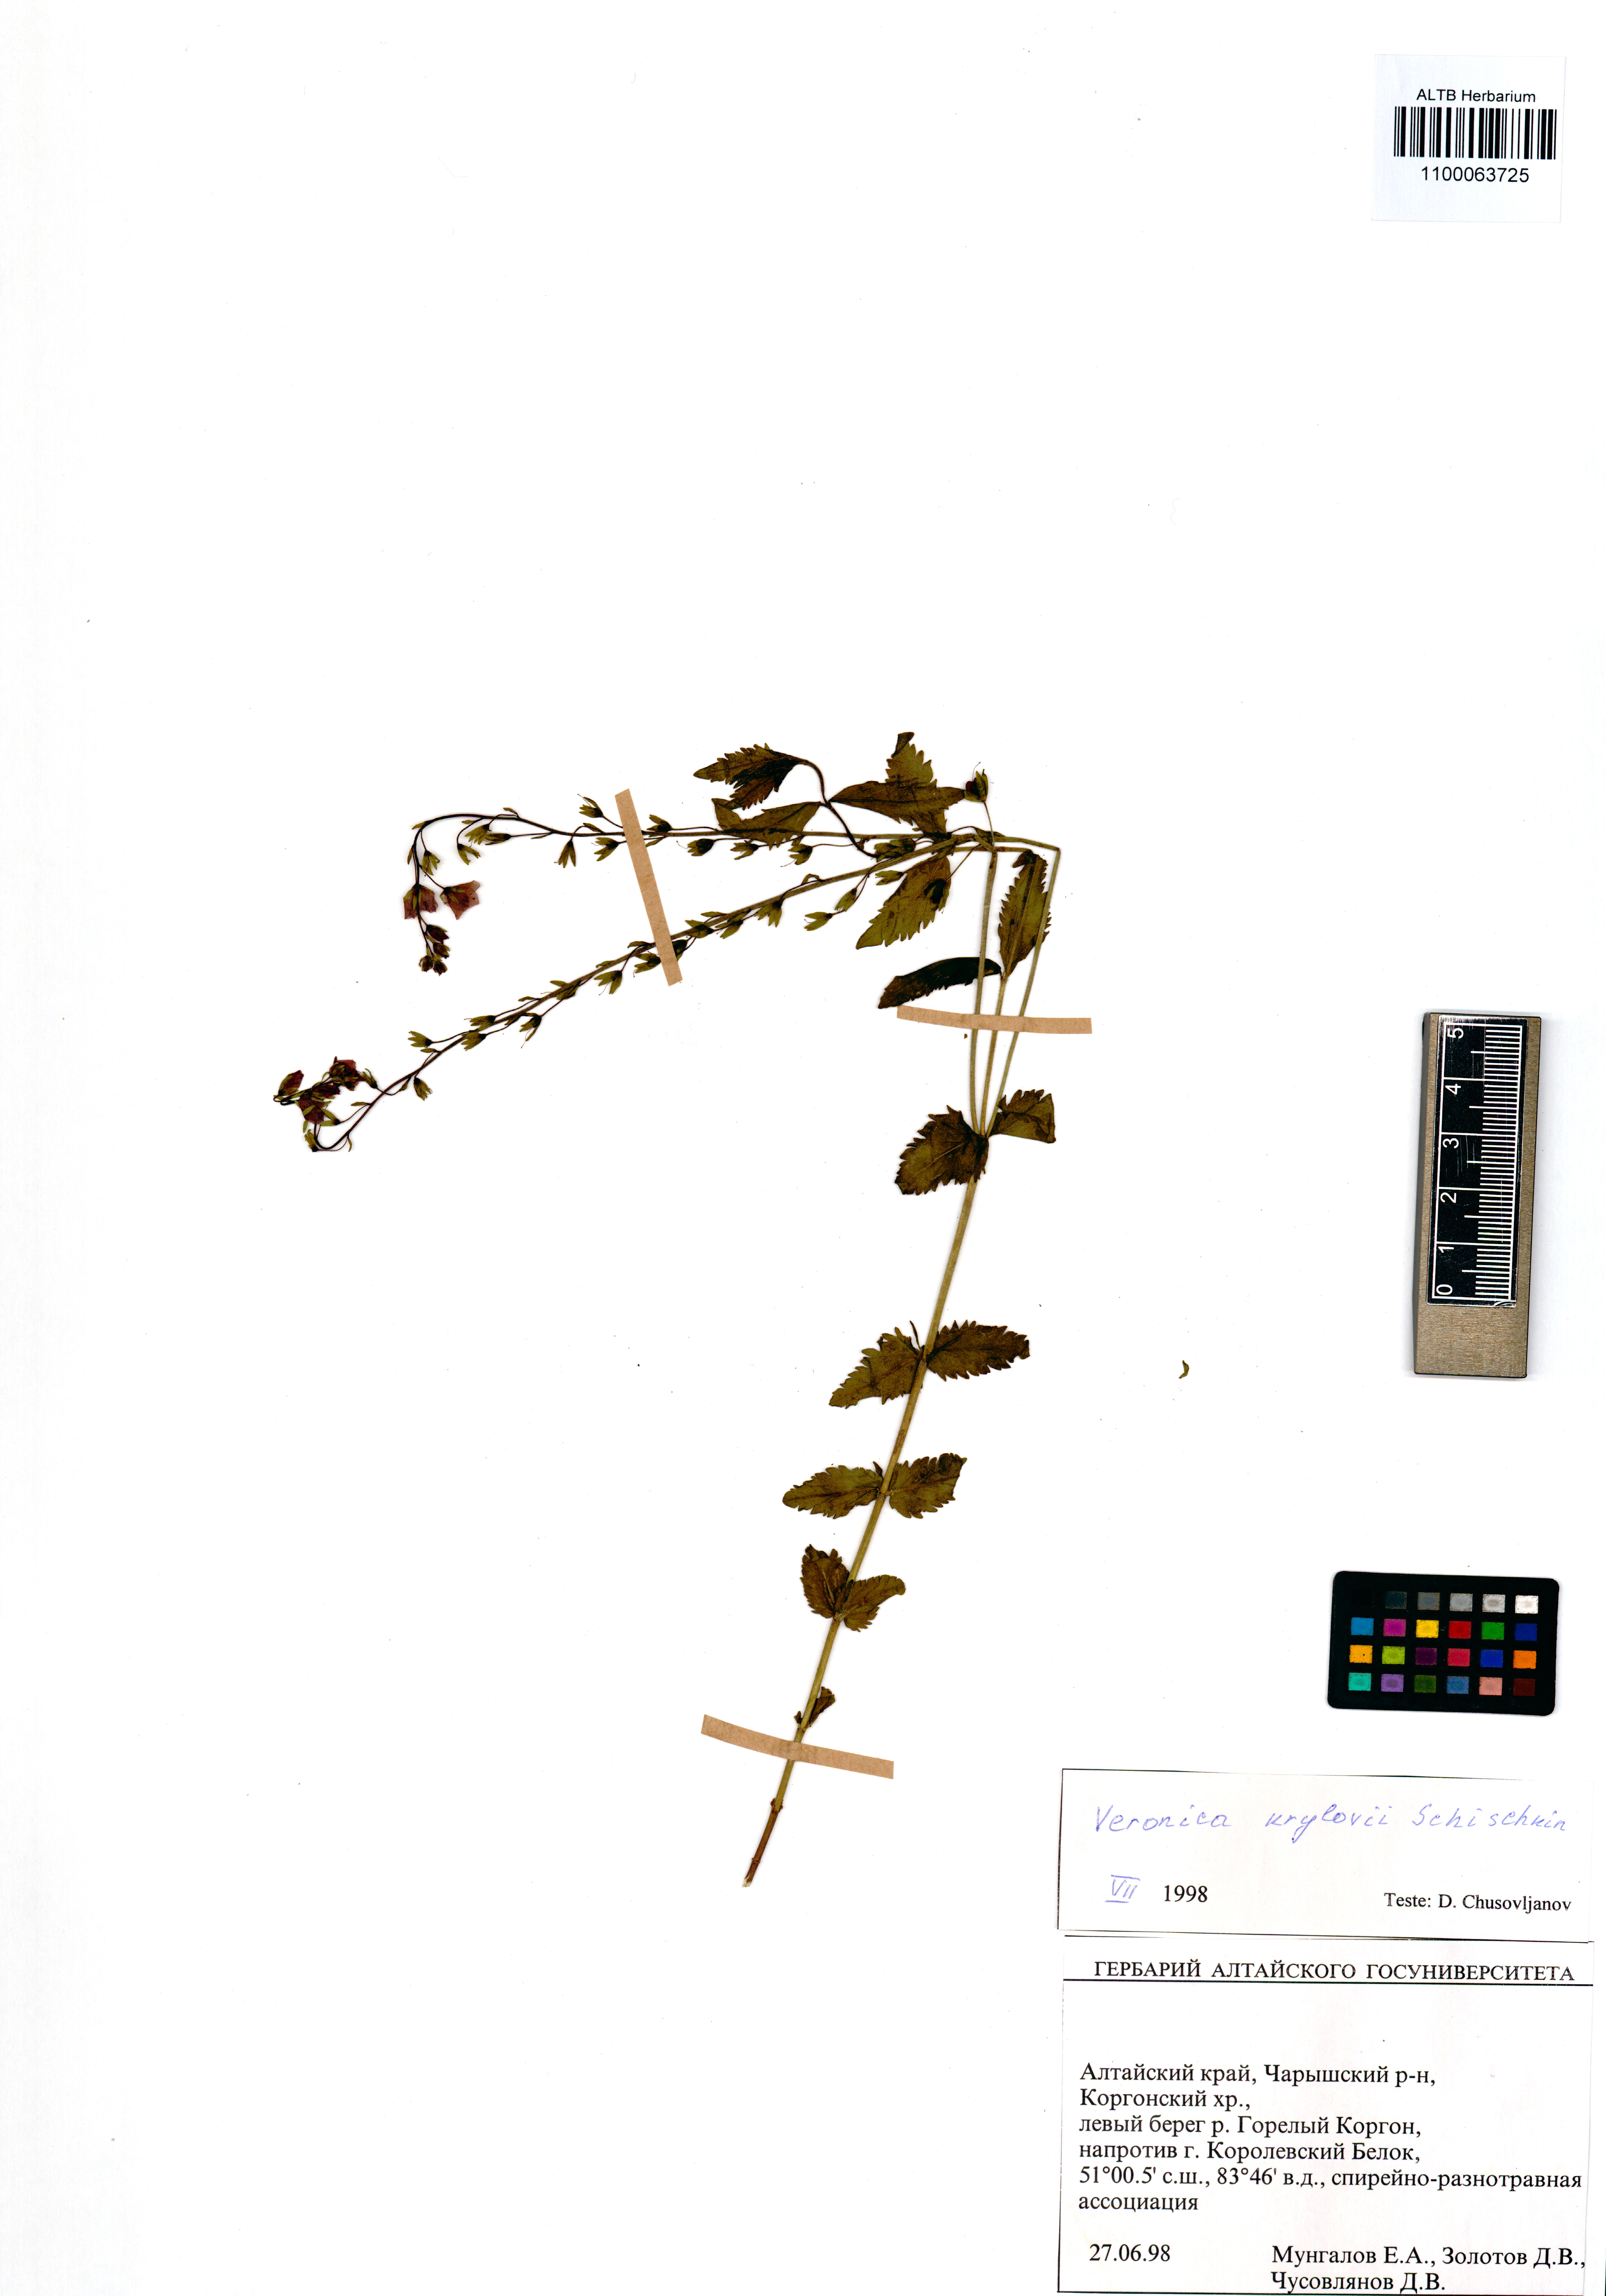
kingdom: Plantae
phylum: Tracheophyta
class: Magnoliopsida
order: Lamiales
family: Plantaginaceae
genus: Veronica
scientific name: Veronica krylovii
